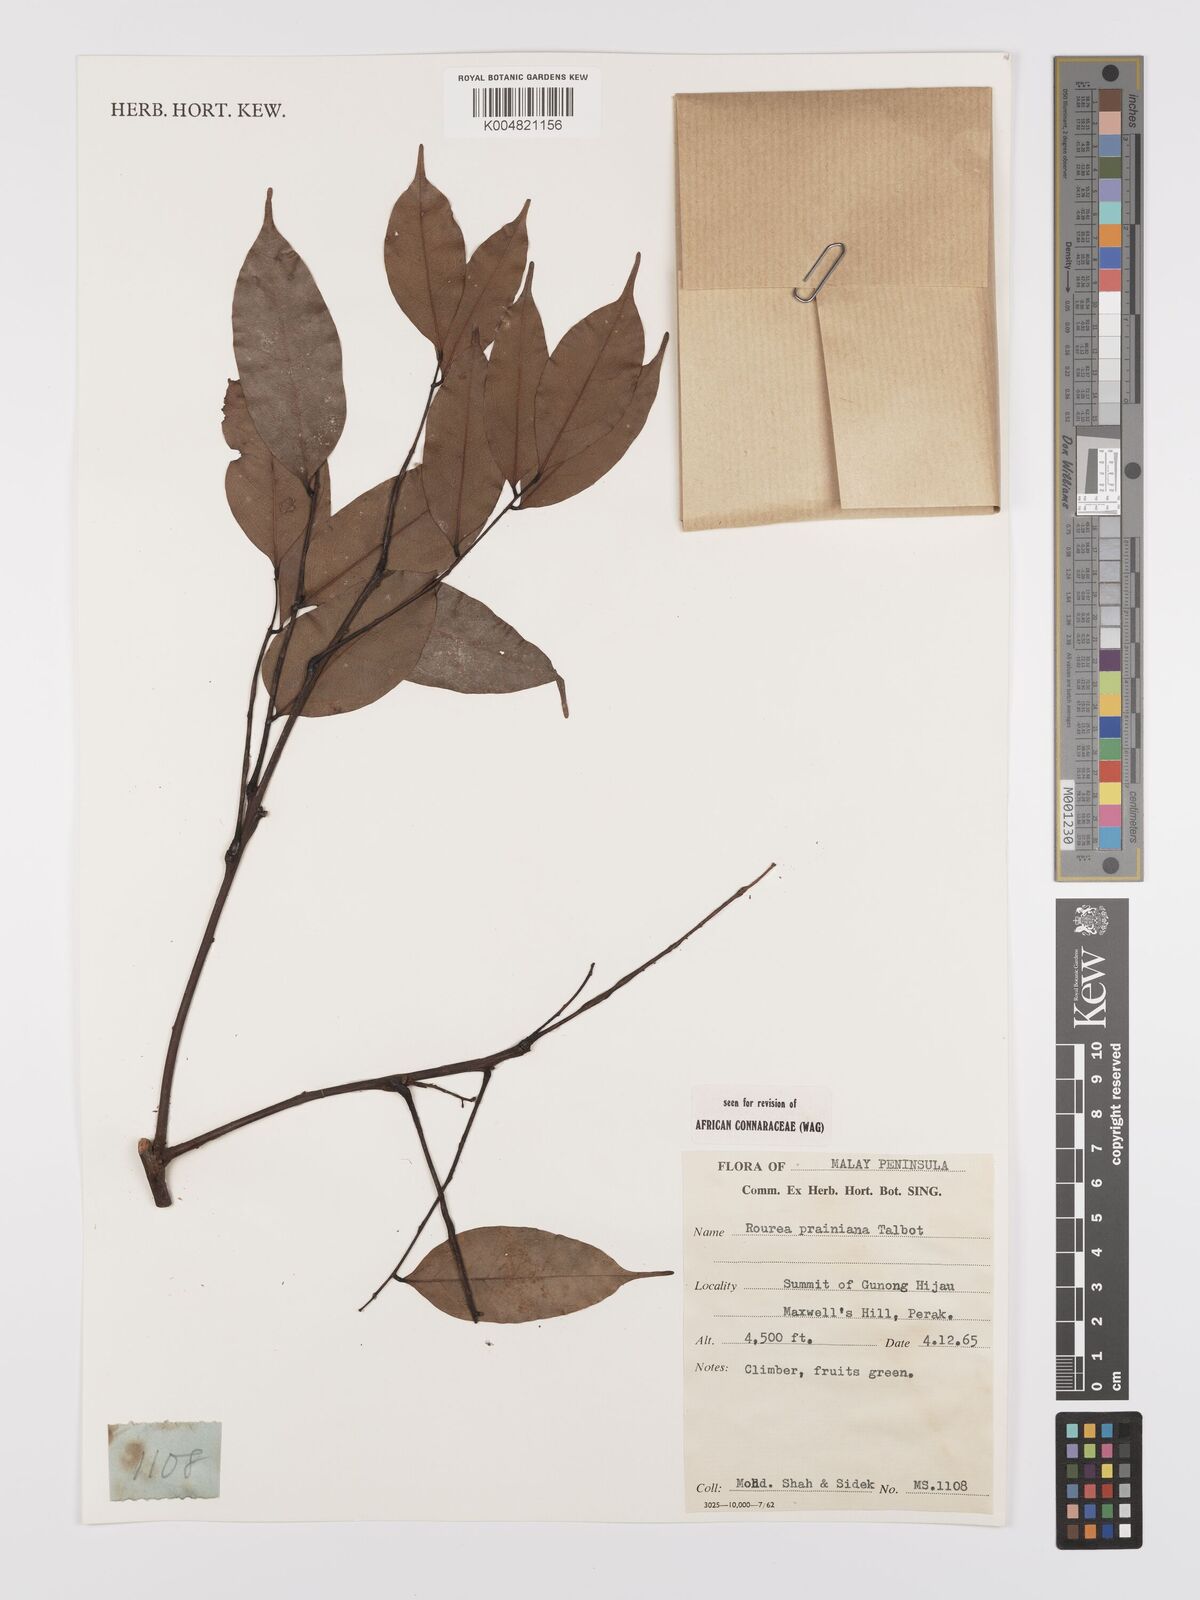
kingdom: Plantae
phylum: Tracheophyta
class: Magnoliopsida
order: Oxalidales
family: Connaraceae
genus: Rourea
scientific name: Rourea prainiana
